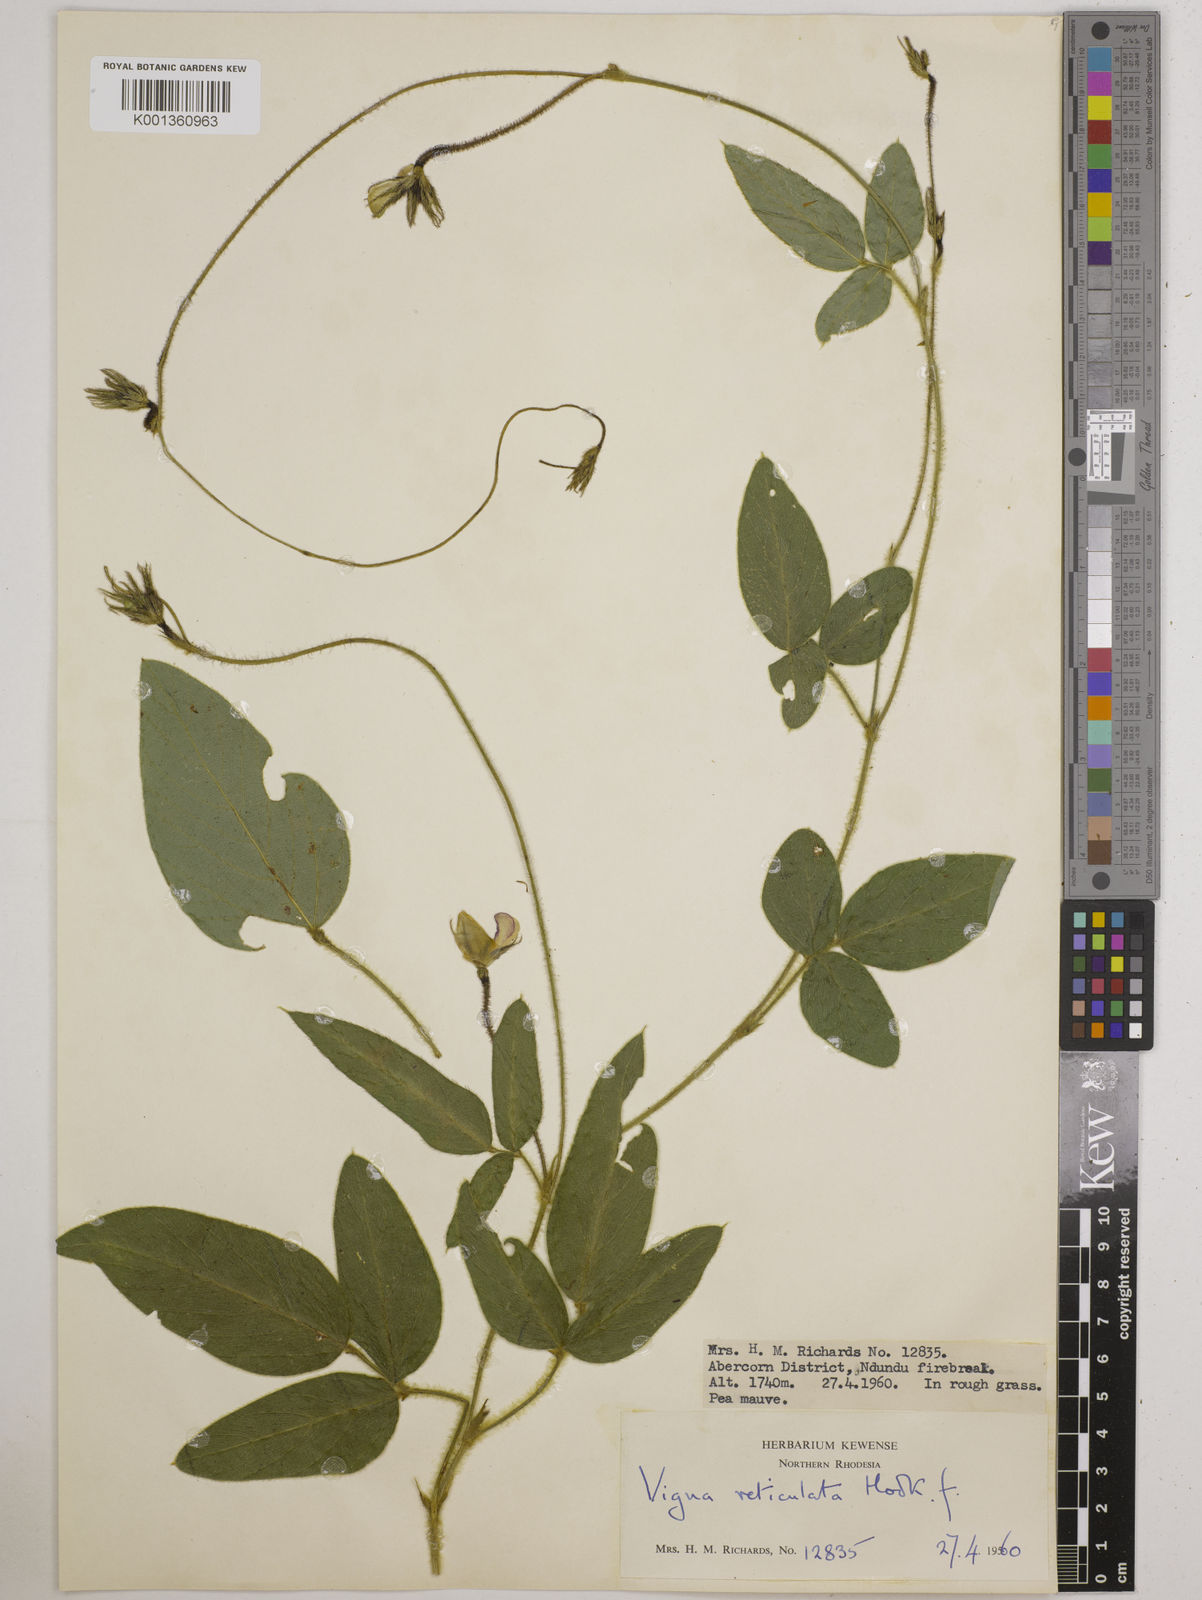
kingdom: Plantae
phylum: Tracheophyta
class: Magnoliopsida
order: Fabales
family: Fabaceae
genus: Vigna
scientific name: Vigna reticulata
